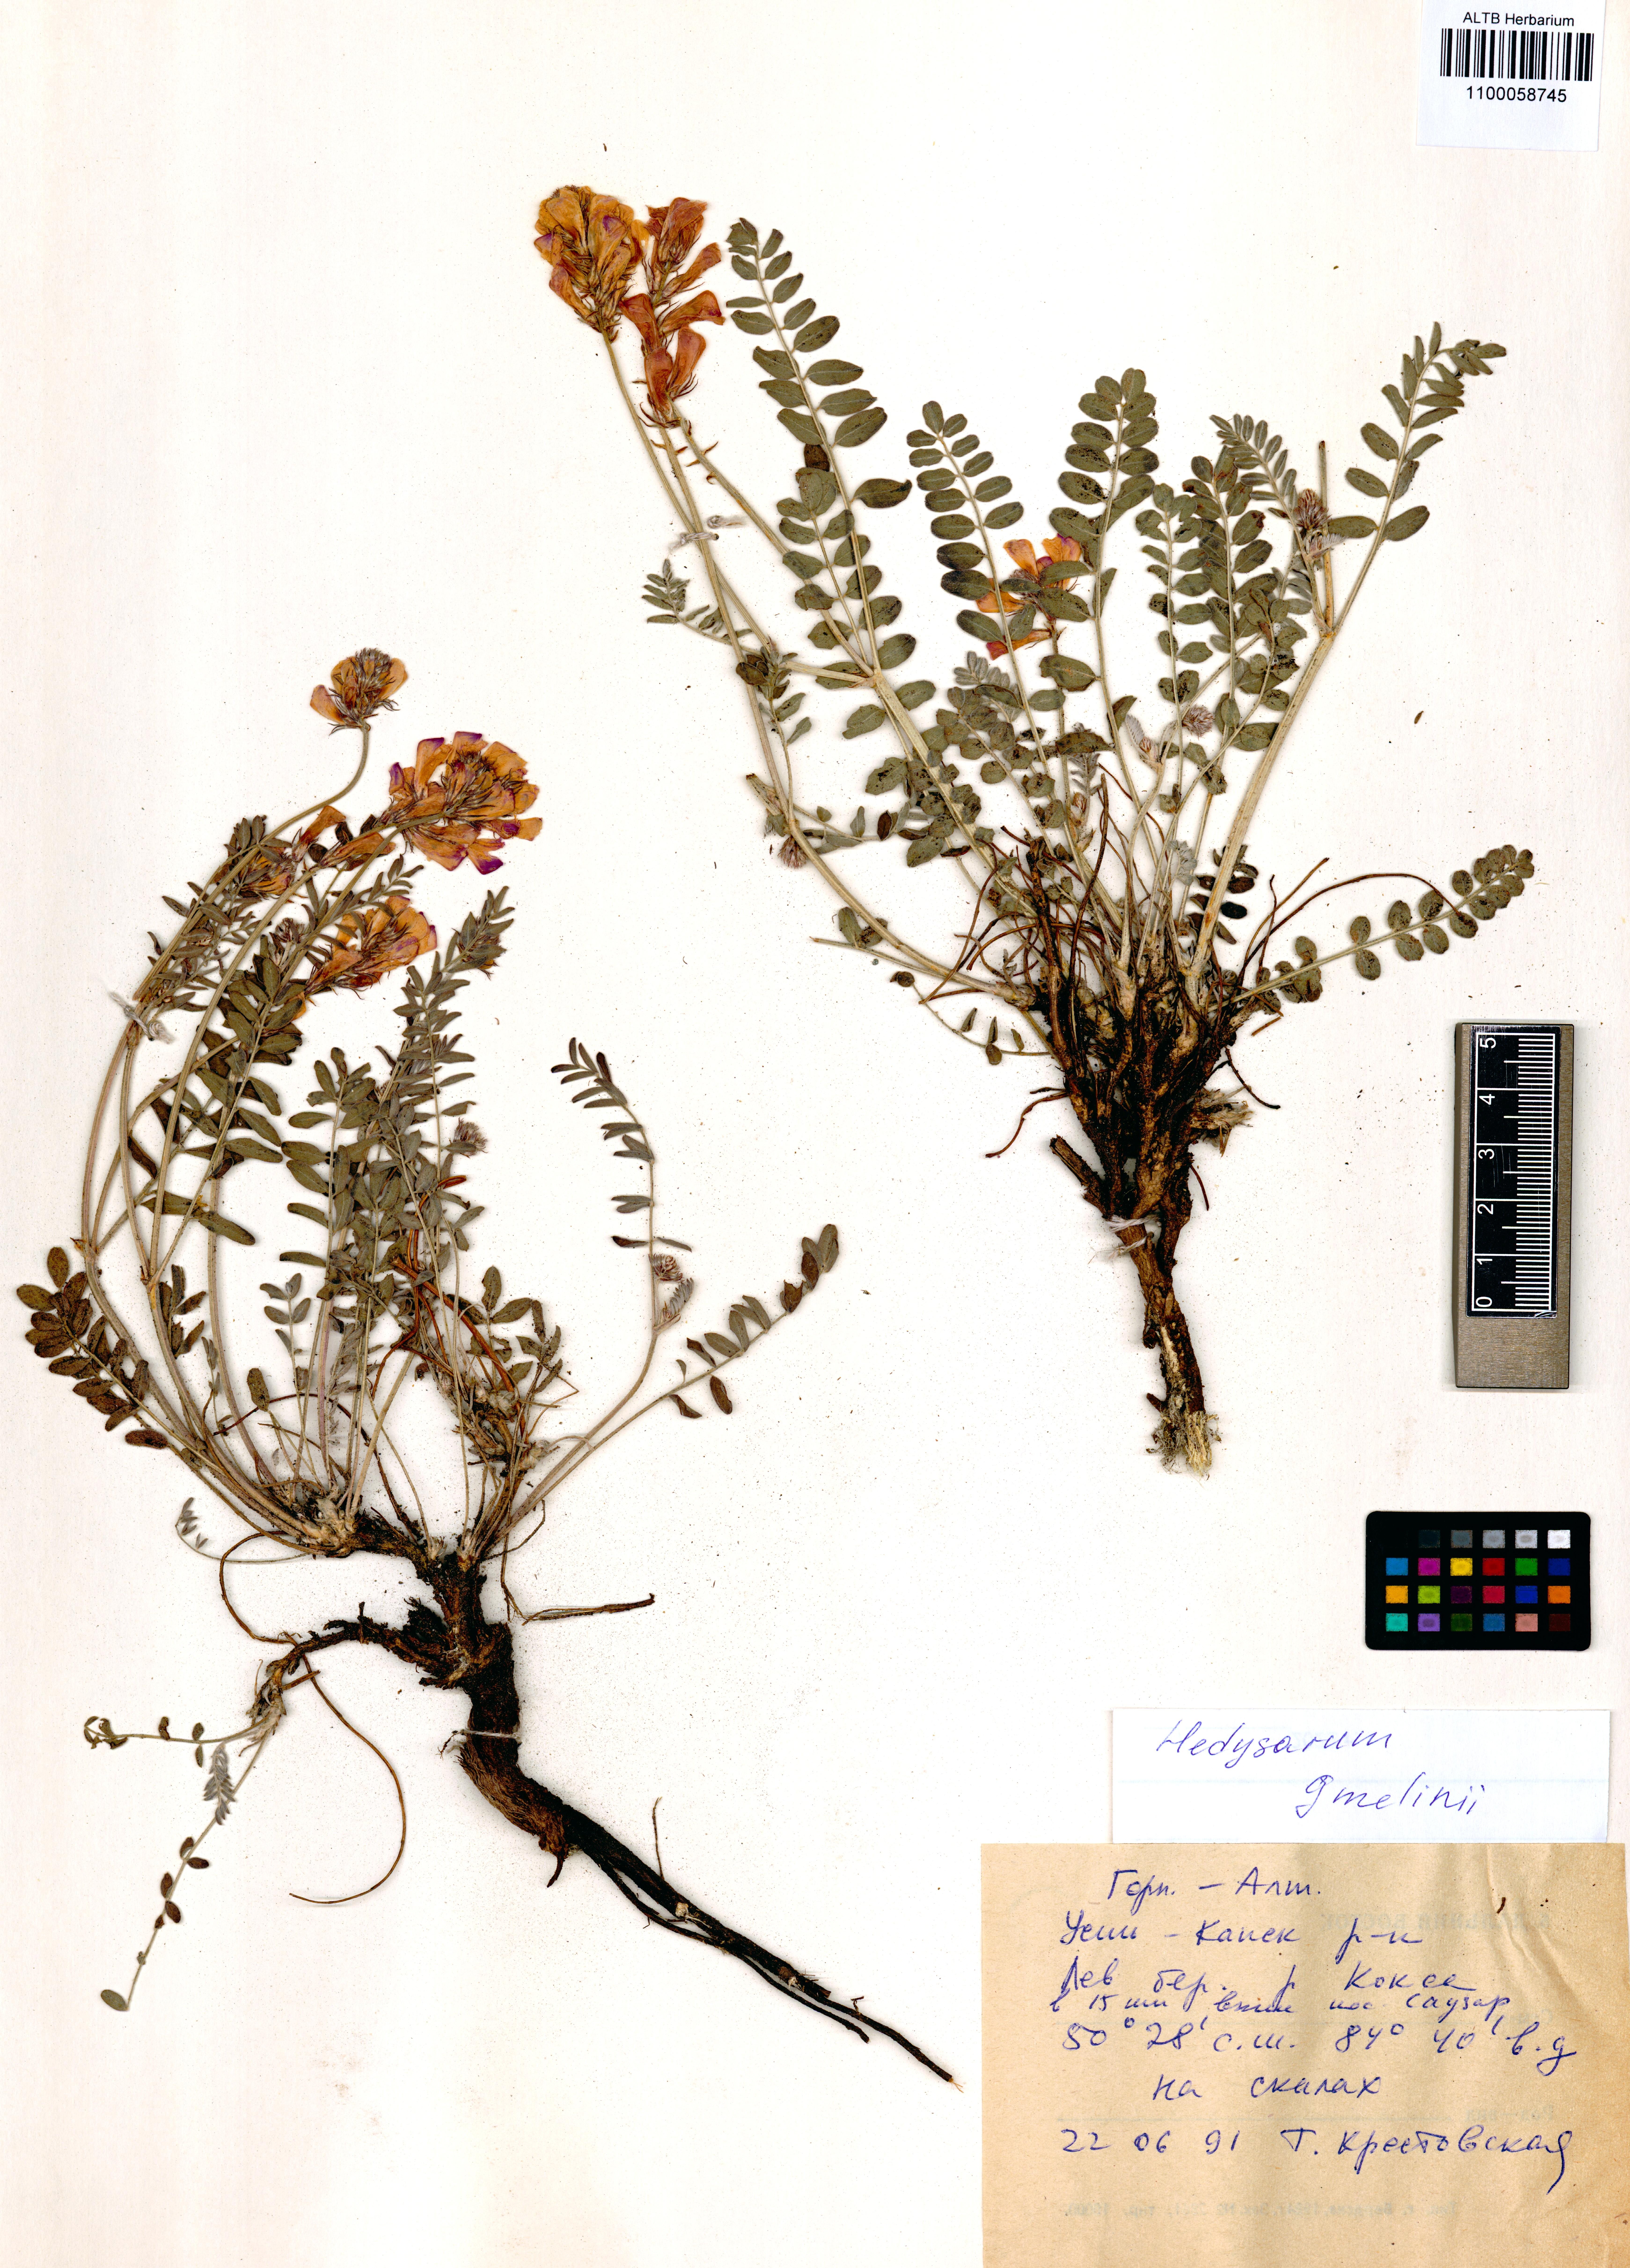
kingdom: Plantae
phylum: Tracheophyta
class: Magnoliopsida
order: Fabales
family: Fabaceae
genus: Hedysarum
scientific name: Hedysarum gmelinii
